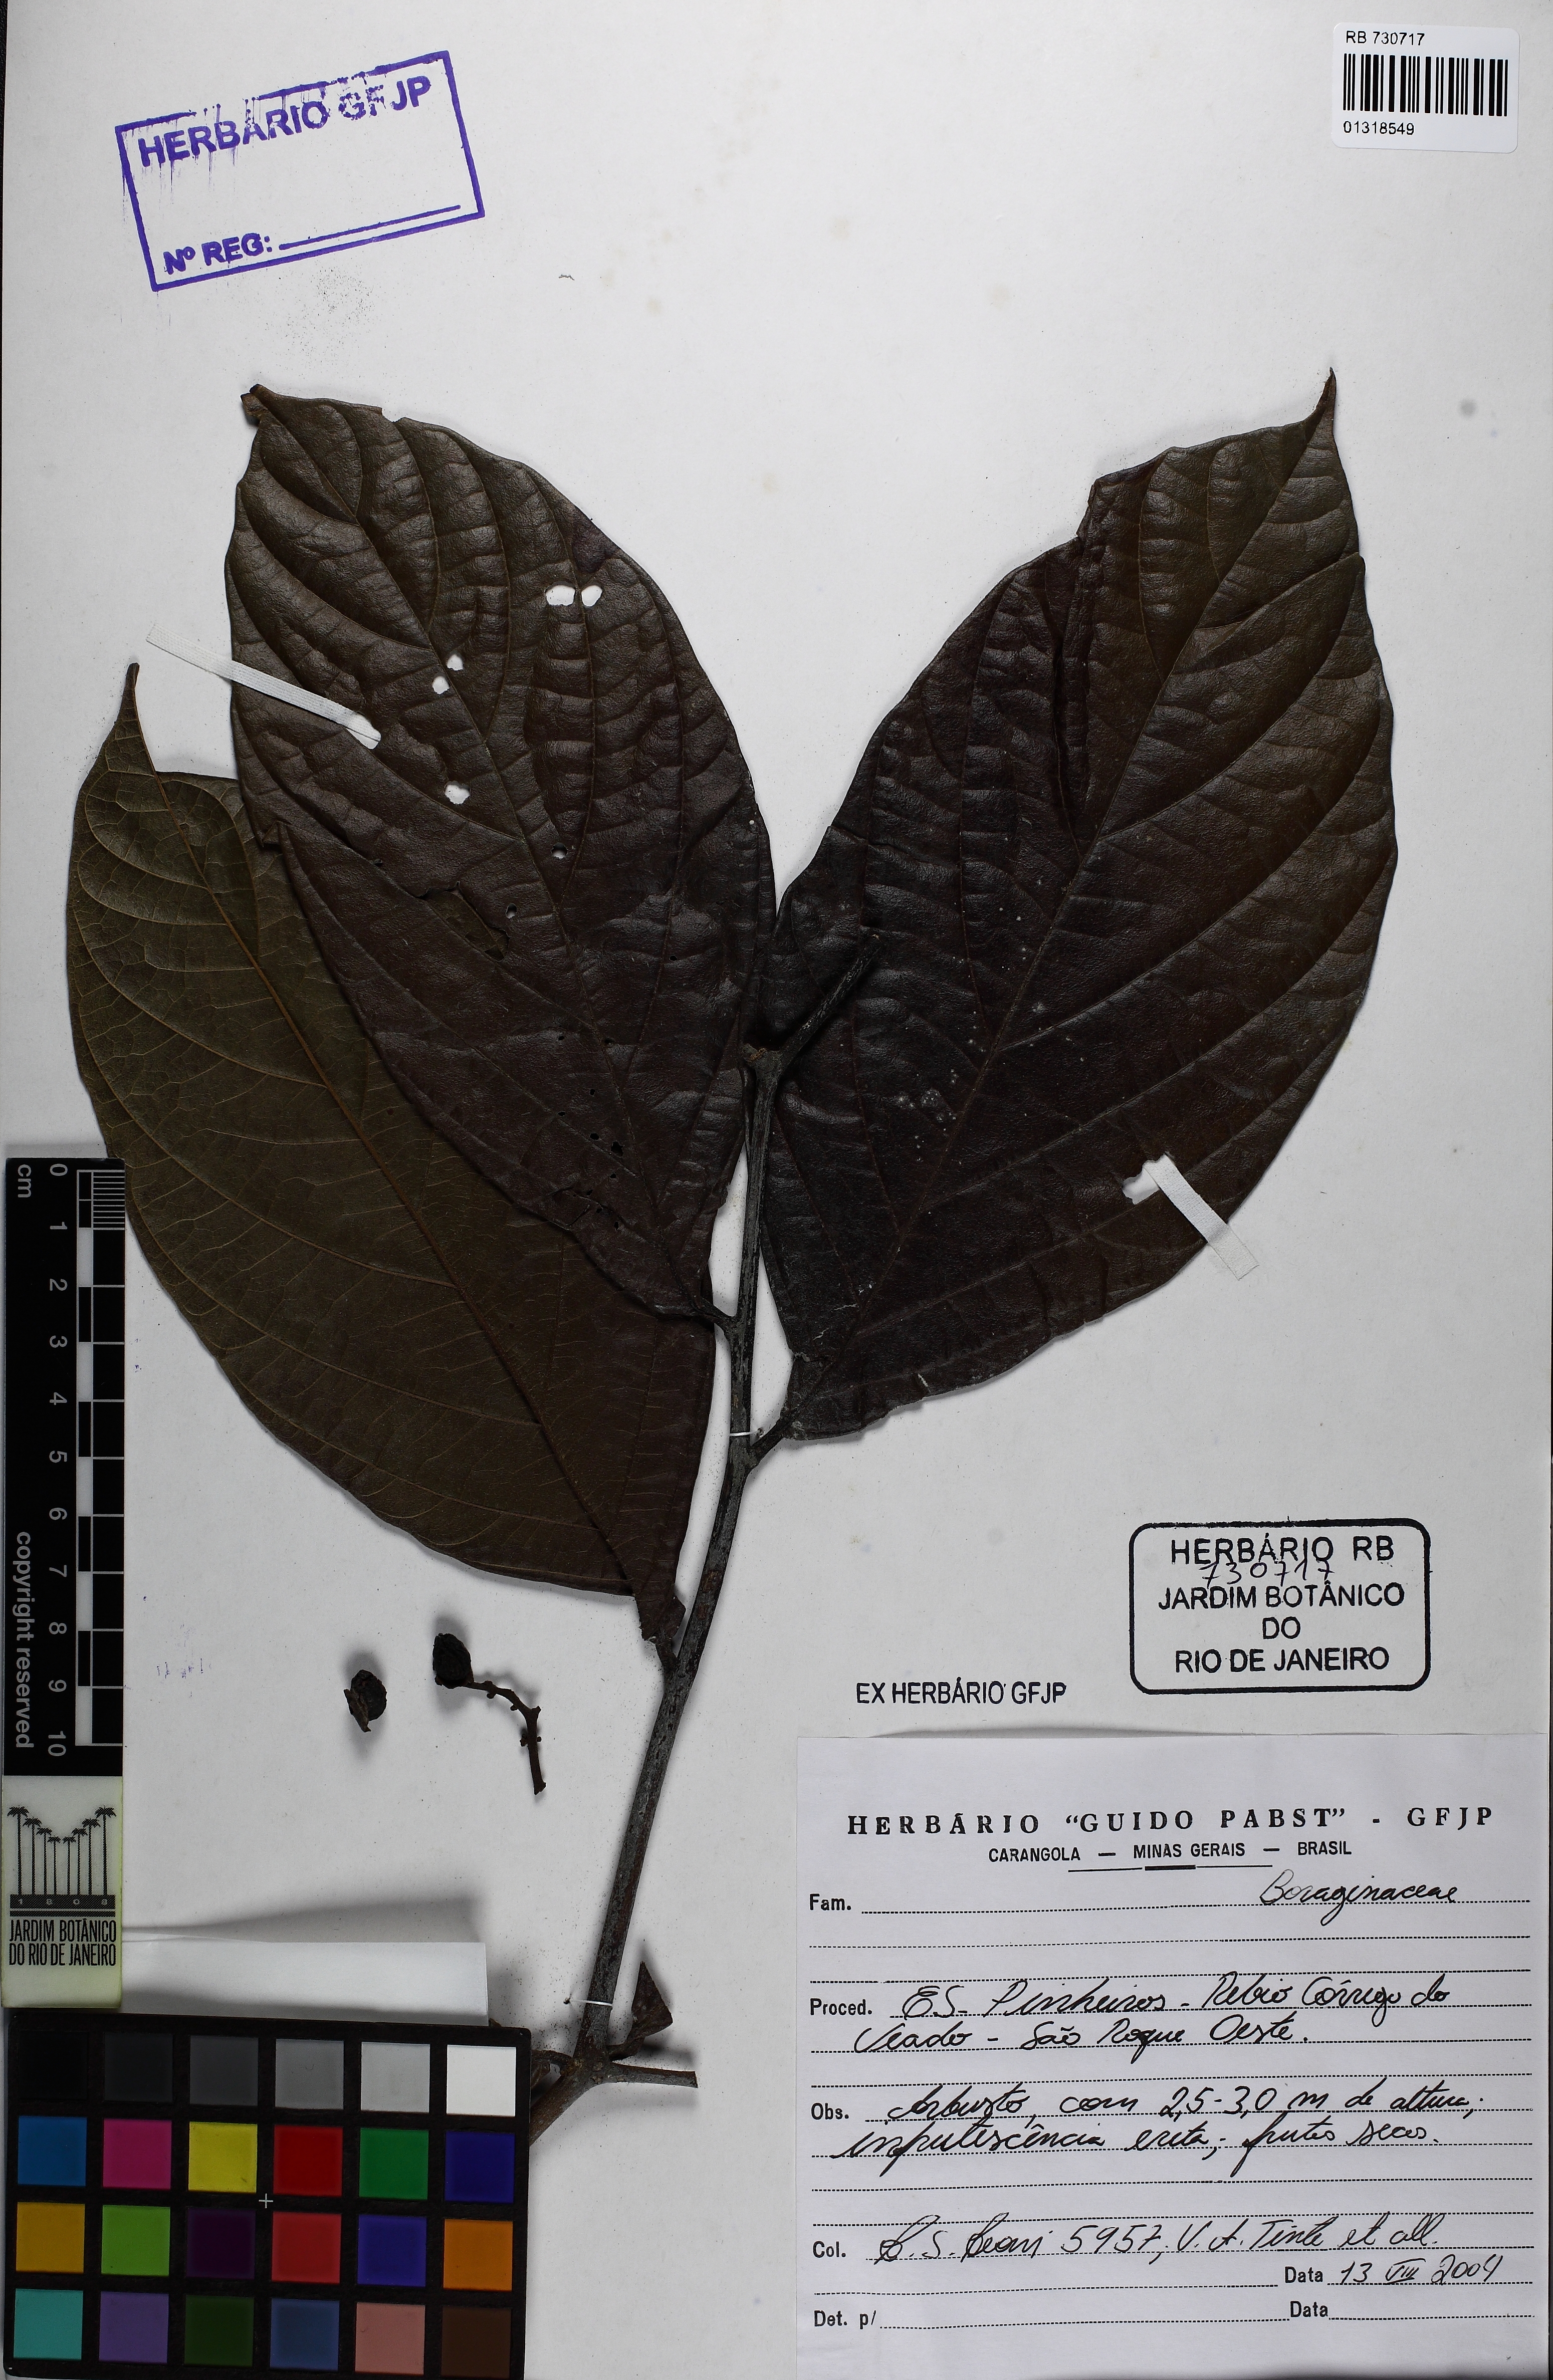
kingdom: Plantae
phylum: Tracheophyta
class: Magnoliopsida
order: Boraginales
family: Cordiaceae
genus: Cordia
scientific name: Cordia
